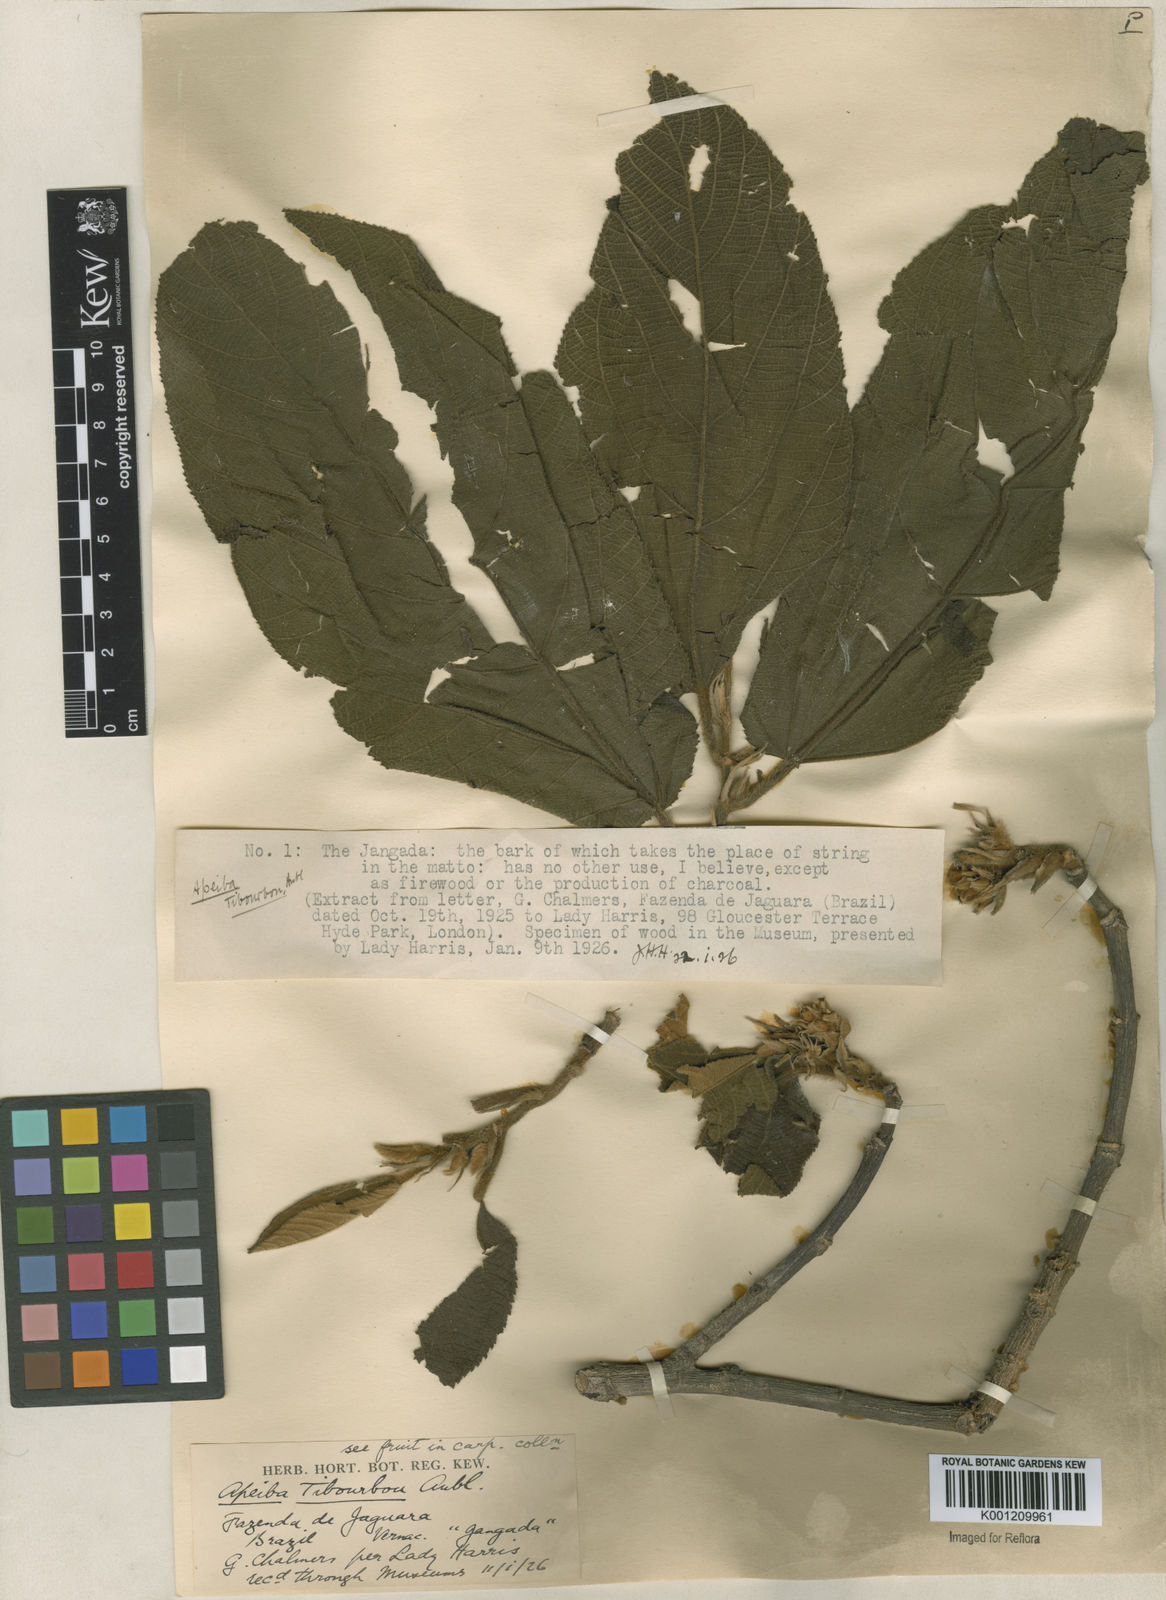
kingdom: Plantae
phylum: Tracheophyta
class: Magnoliopsida
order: Malvales
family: Malvaceae
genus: Apeiba
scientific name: Apeiba tibourbou
